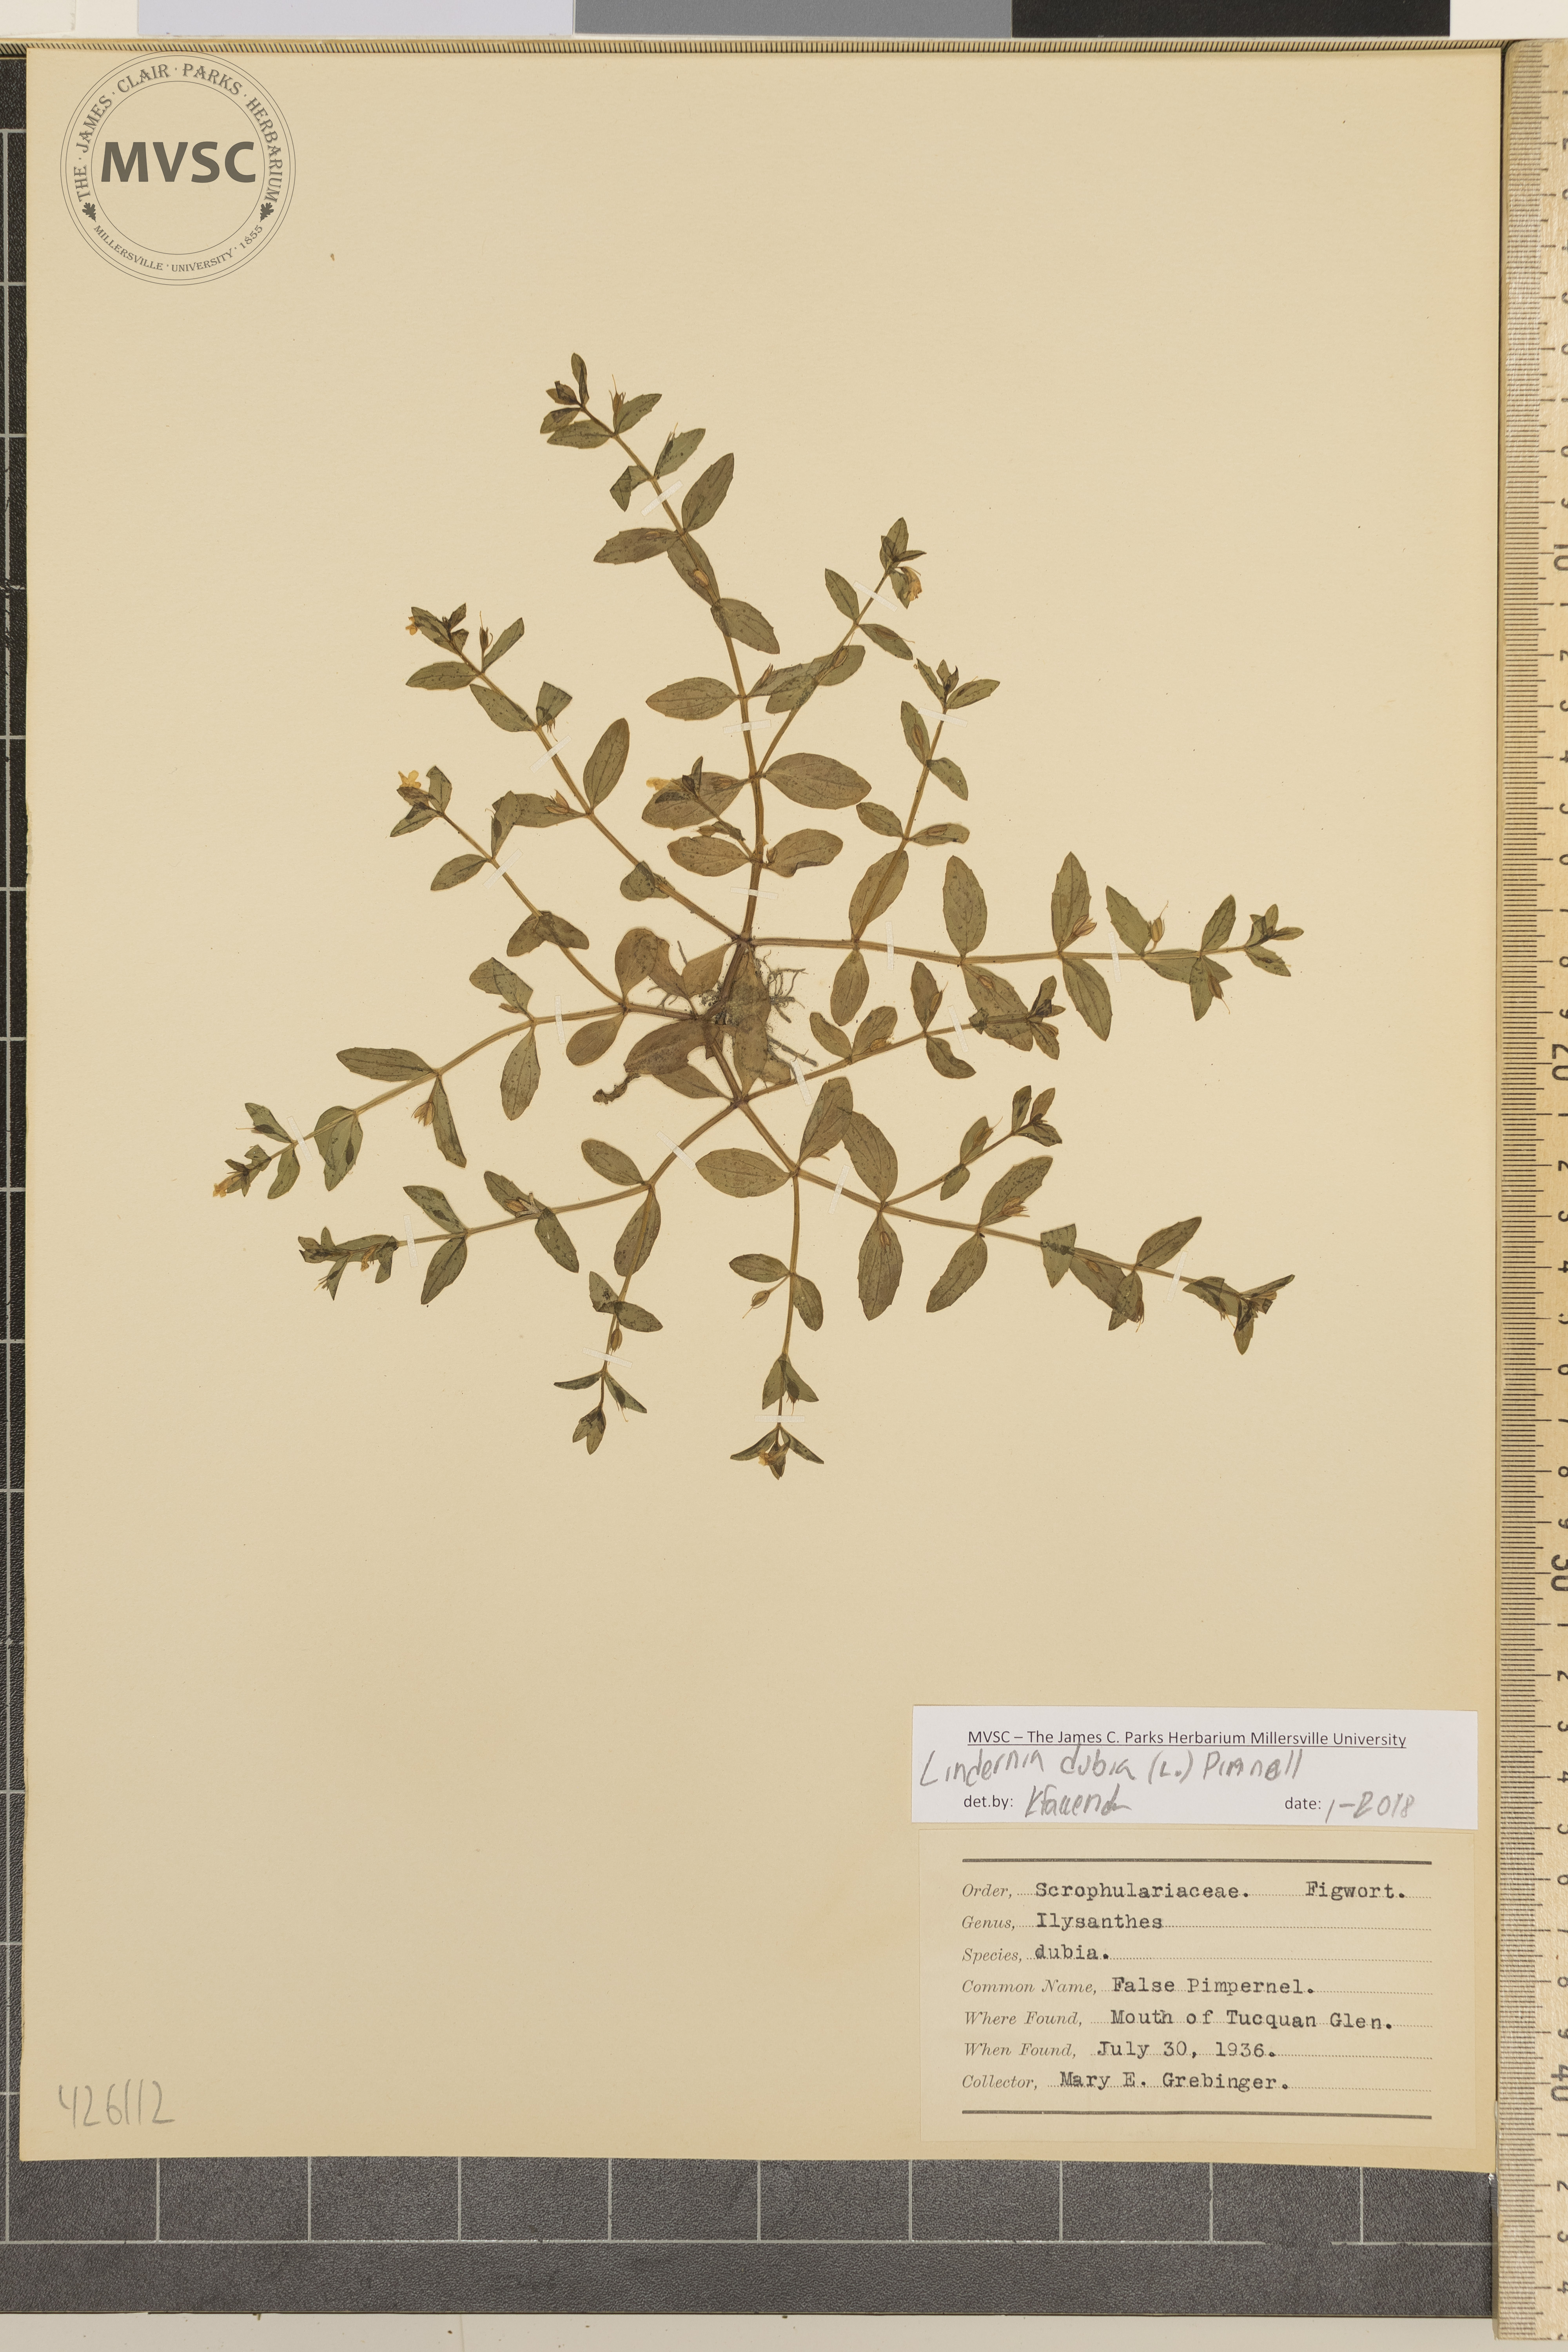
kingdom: Plantae
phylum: Tracheophyta
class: Magnoliopsida
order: Lamiales
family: Linderniaceae
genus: Lindernia
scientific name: Lindernia dubia
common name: False pimpernel
